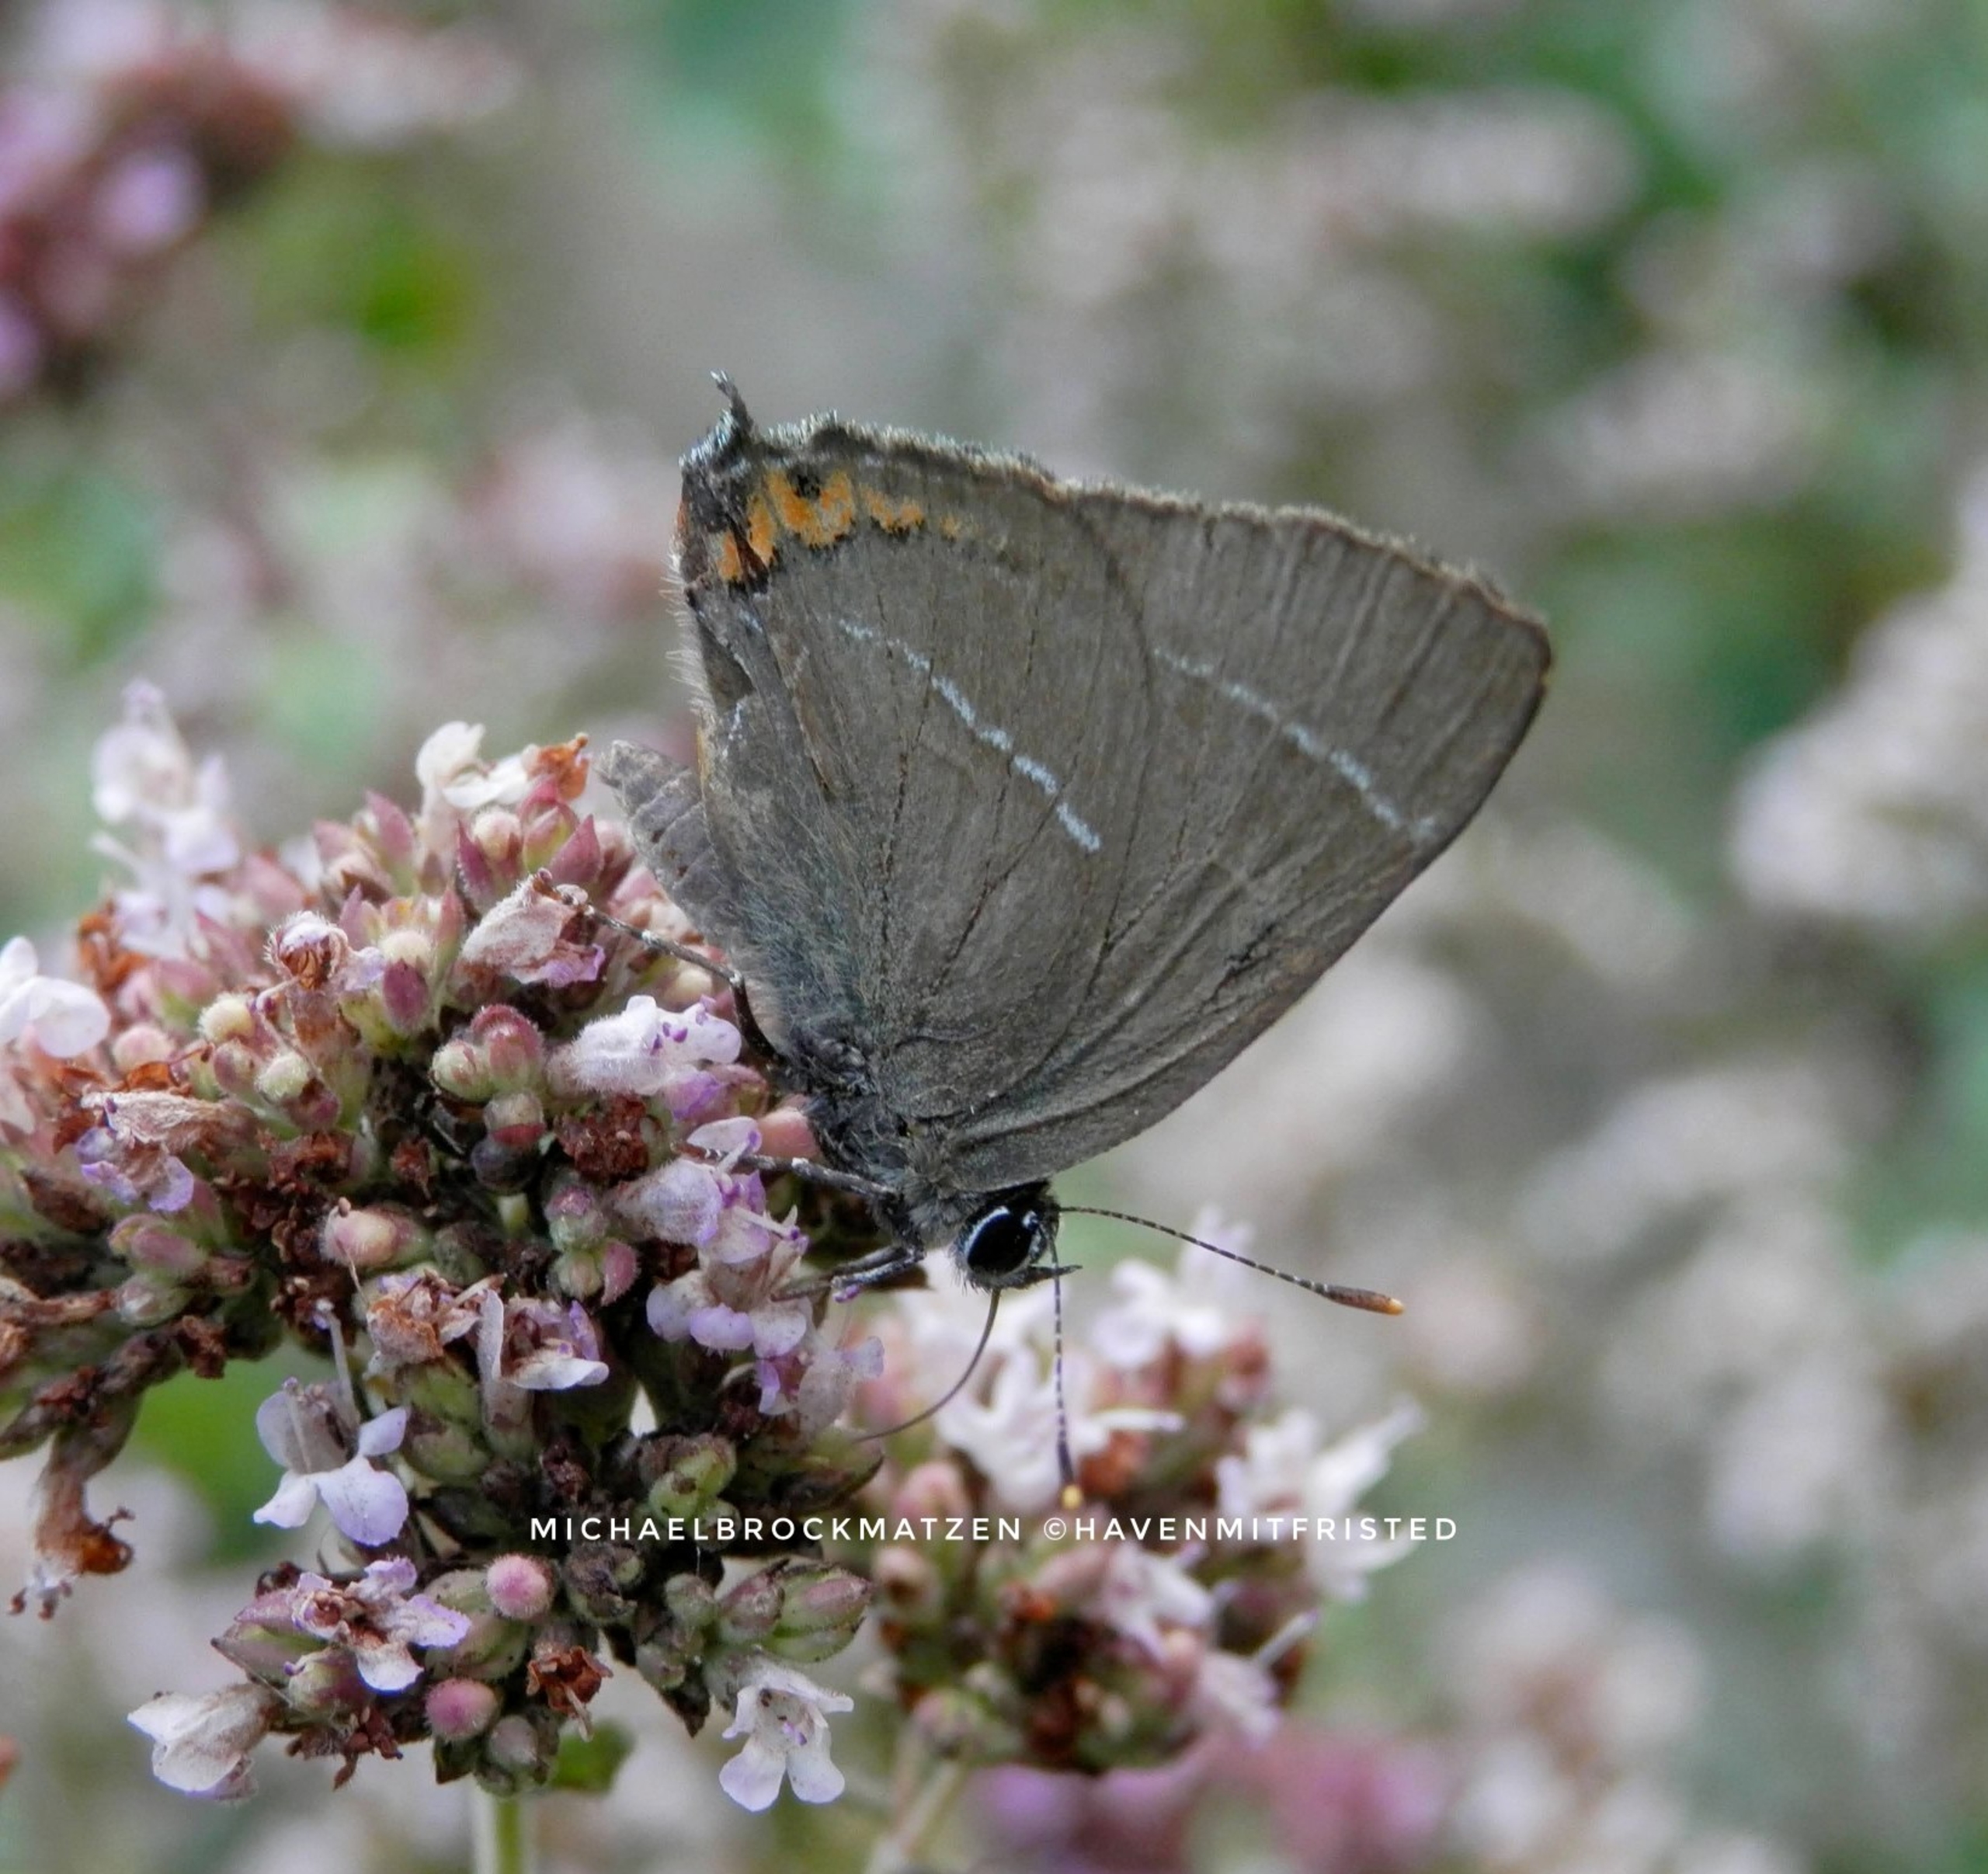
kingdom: Animalia
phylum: Arthropoda
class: Insecta
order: Lepidoptera
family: Lycaenidae
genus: Satyrium
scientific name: Satyrium w-album
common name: Det hvide W
